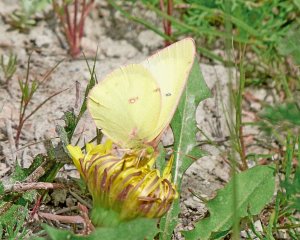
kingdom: Animalia
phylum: Arthropoda
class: Insecta
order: Lepidoptera
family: Pieridae
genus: Colias
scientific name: Colias philodice
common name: Clouded Sulphur
